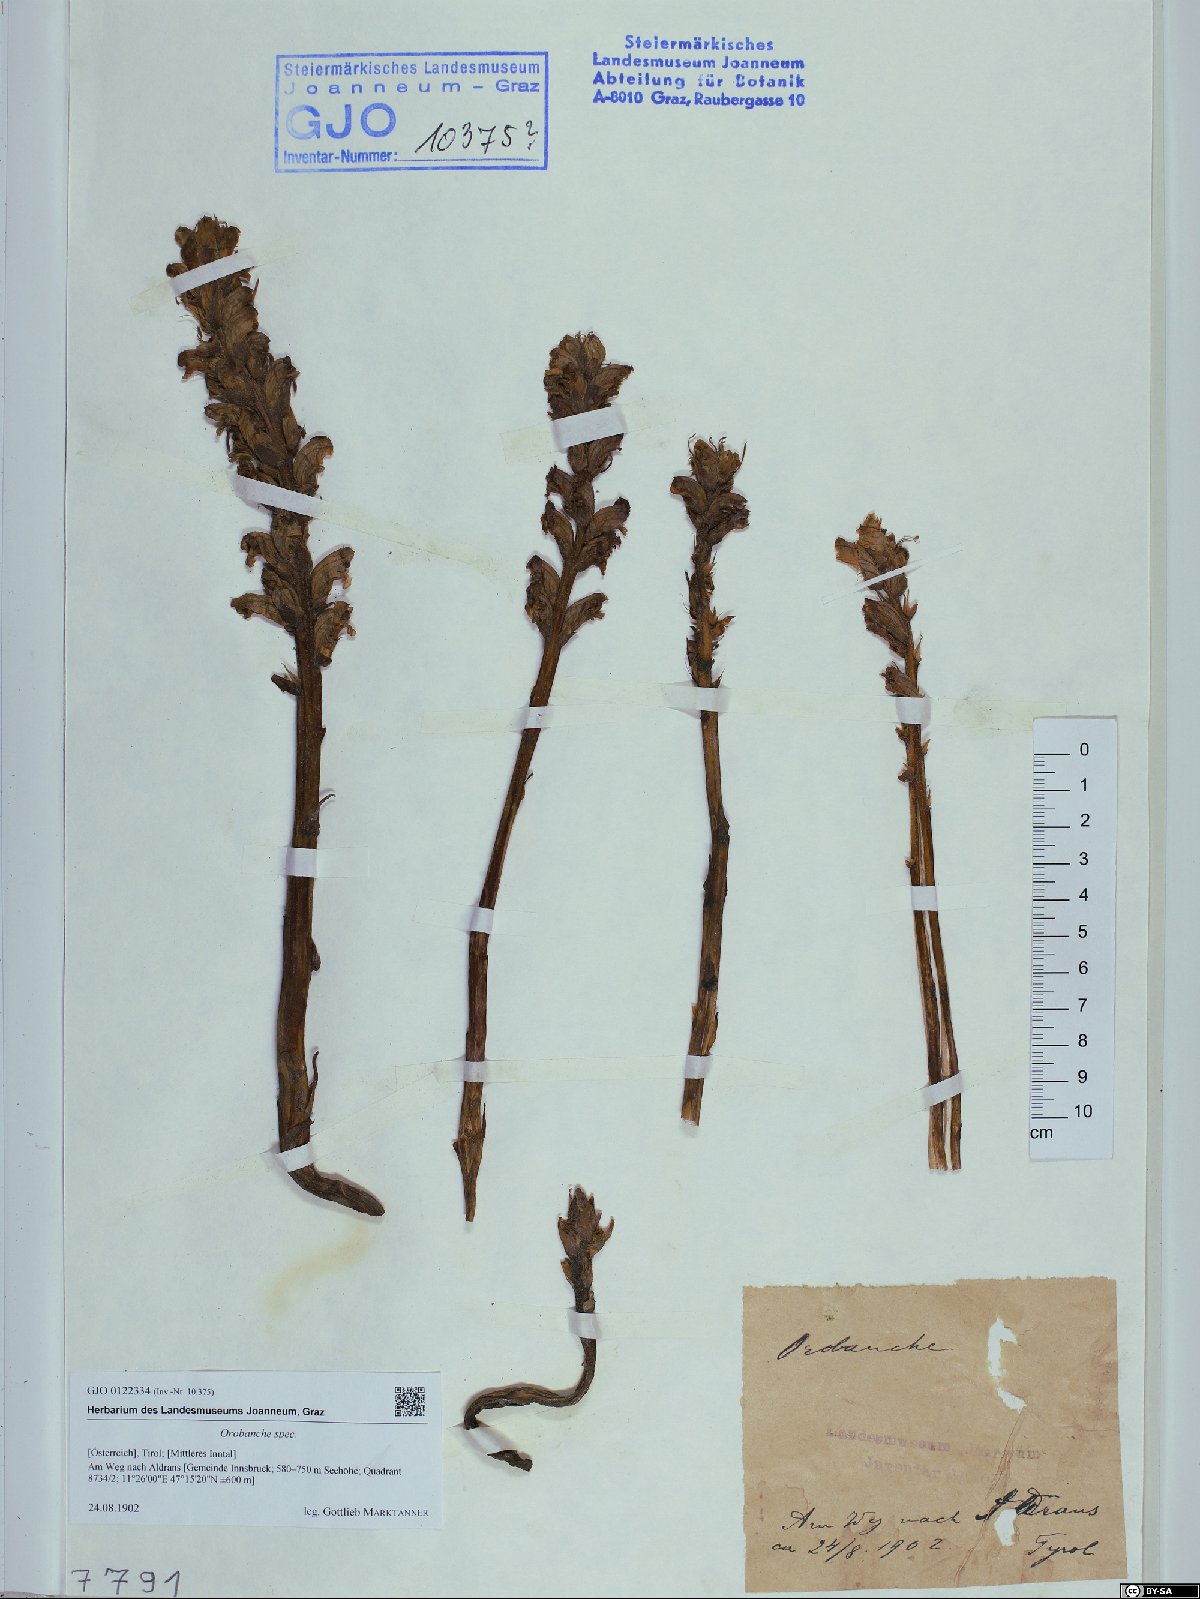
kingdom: Plantae
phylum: Tracheophyta
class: Magnoliopsida
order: Lamiales
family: Orobanchaceae
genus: Orobanche
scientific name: Orobanche
